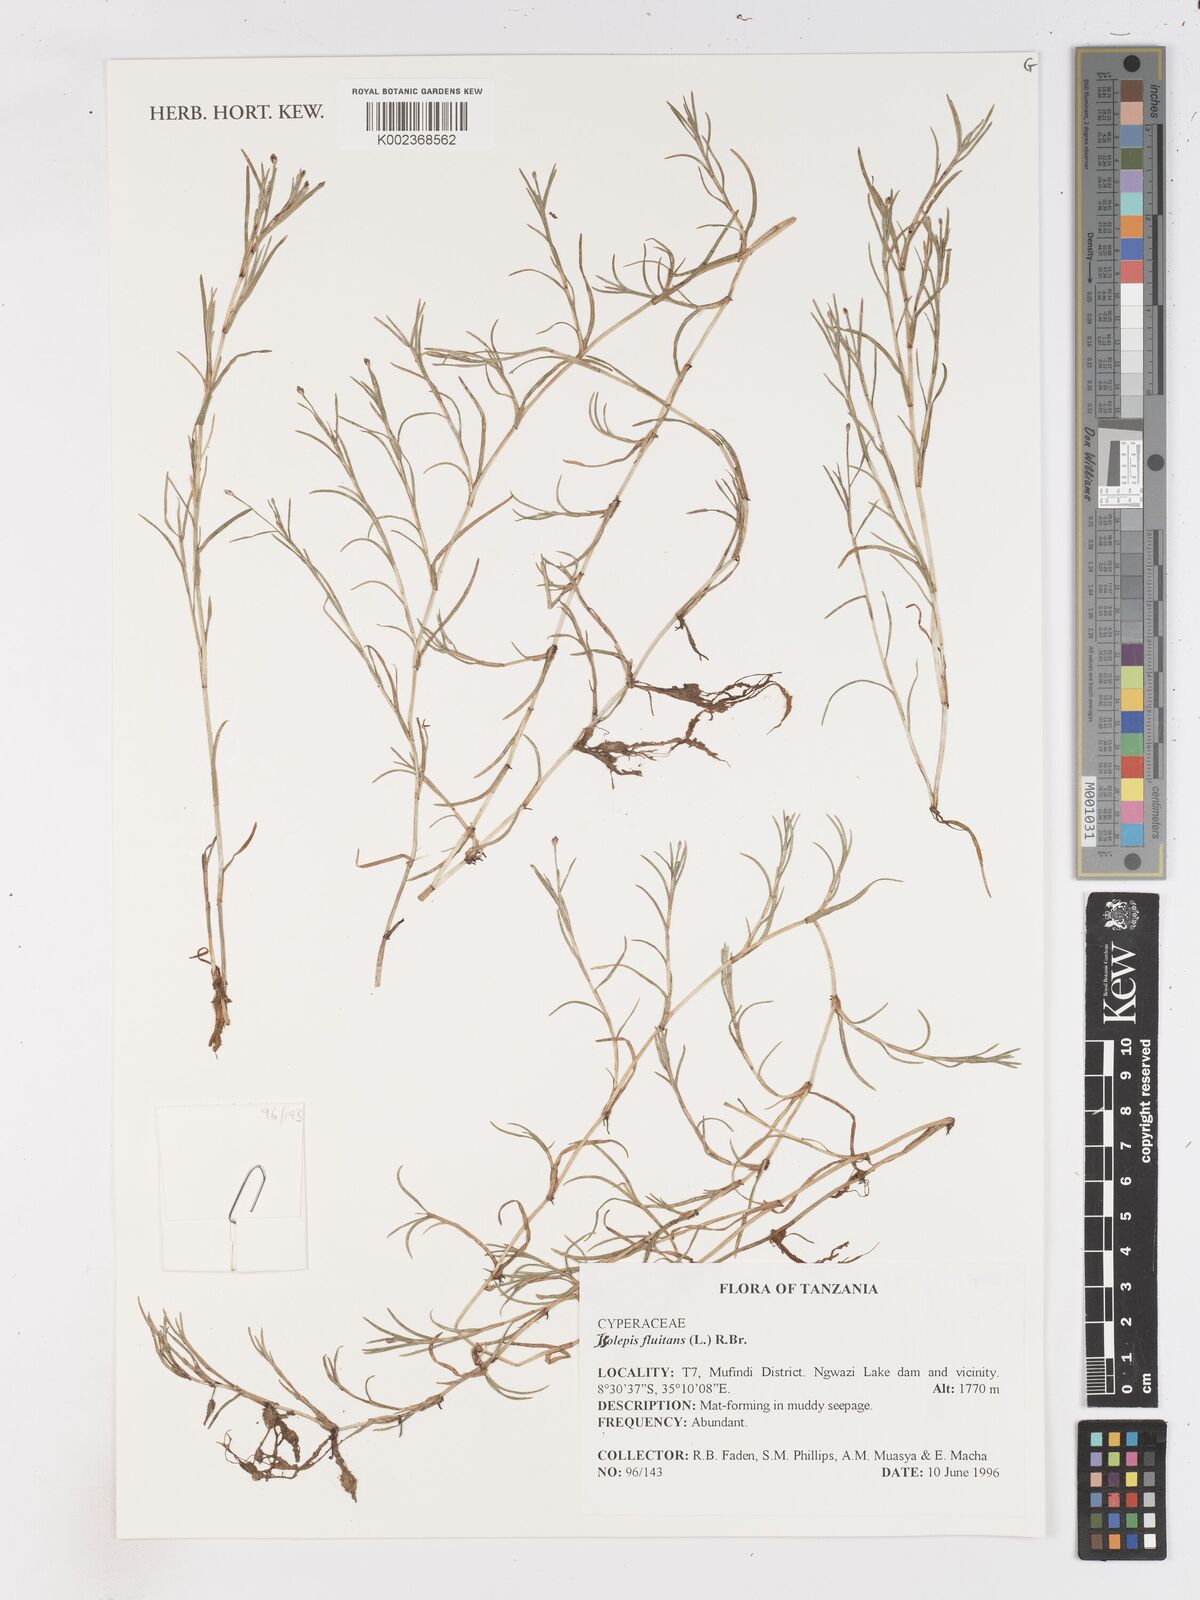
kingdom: Plantae
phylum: Tracheophyta
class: Liliopsida
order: Poales
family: Cyperaceae
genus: Isolepis
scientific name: Isolepis fluitans
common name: Floating club-rush
